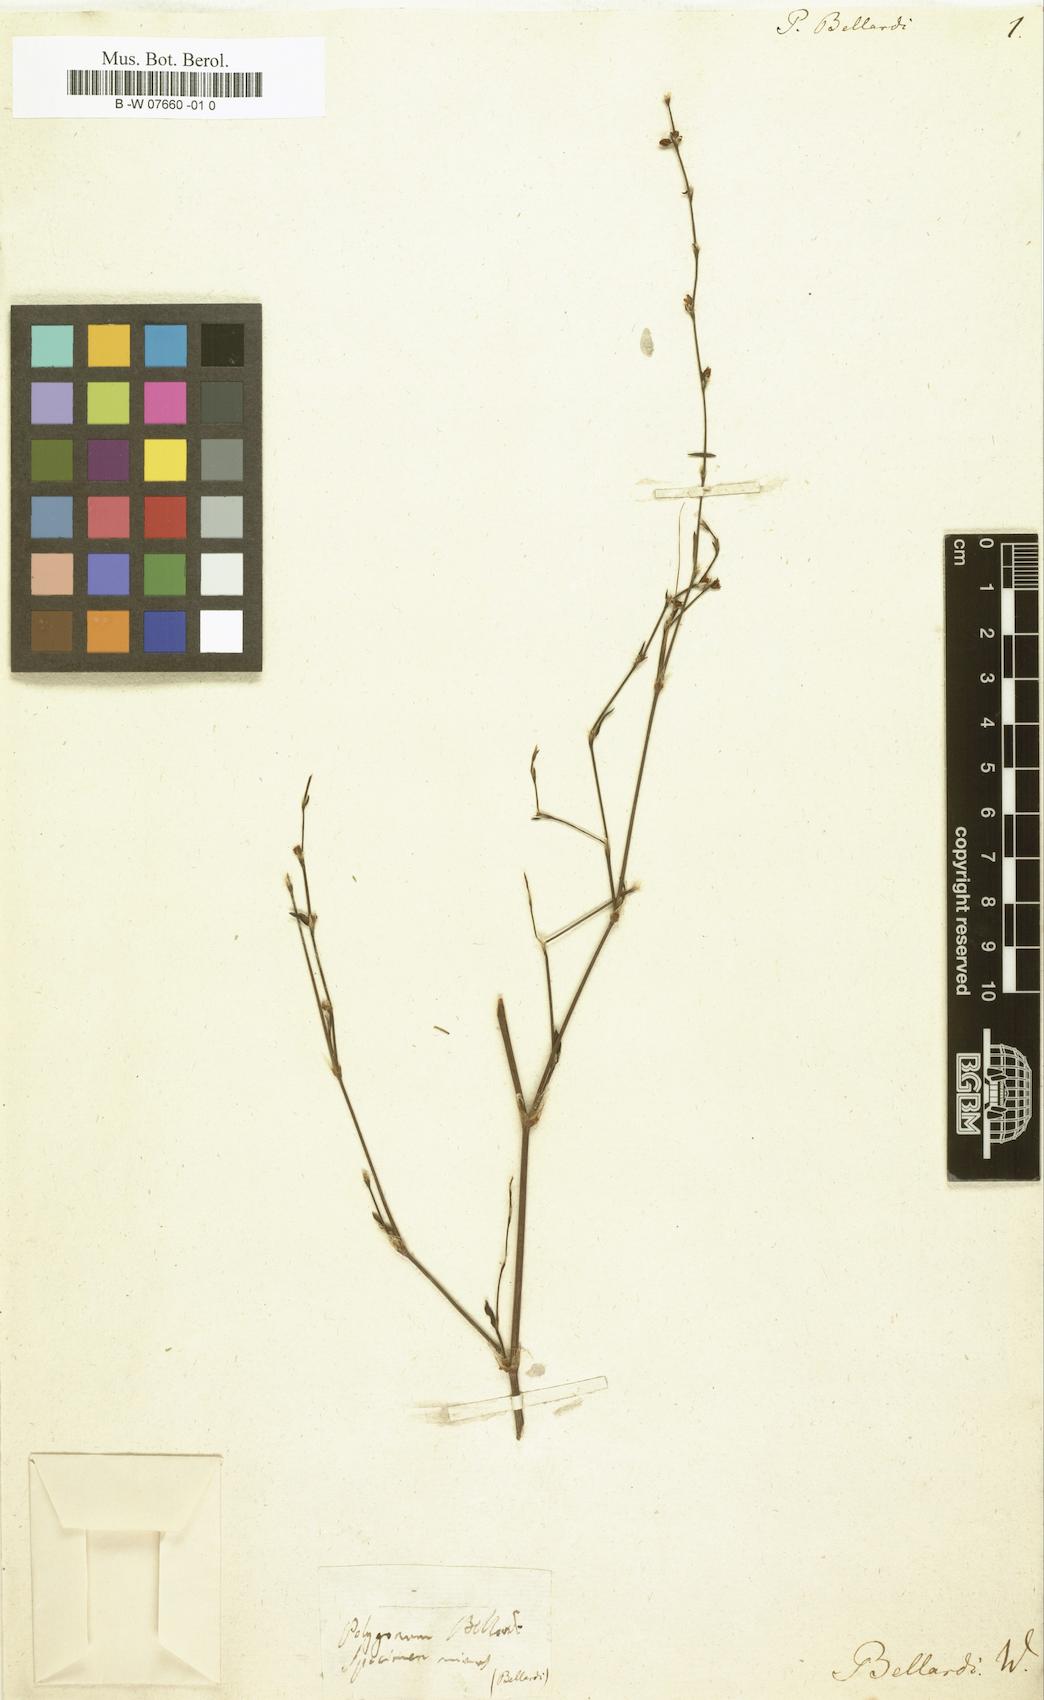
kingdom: Plantae
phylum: Tracheophyta
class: Magnoliopsida
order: Caryophyllales
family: Polygonaceae
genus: Polygonum
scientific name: Polygonum bellardii
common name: Narrowleaf knotweed
